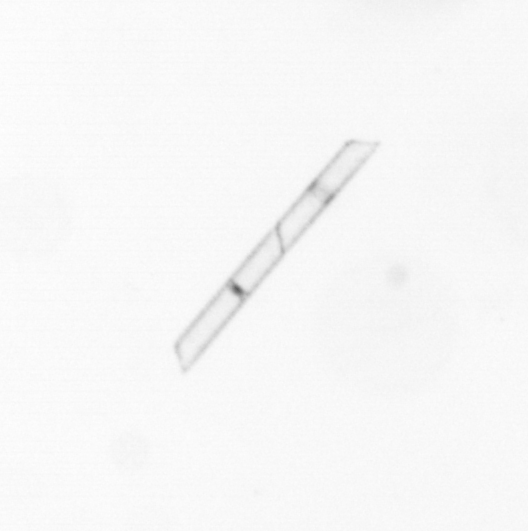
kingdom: Chromista
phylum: Ochrophyta
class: Bacillariophyceae
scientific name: Bacillariophyceae
